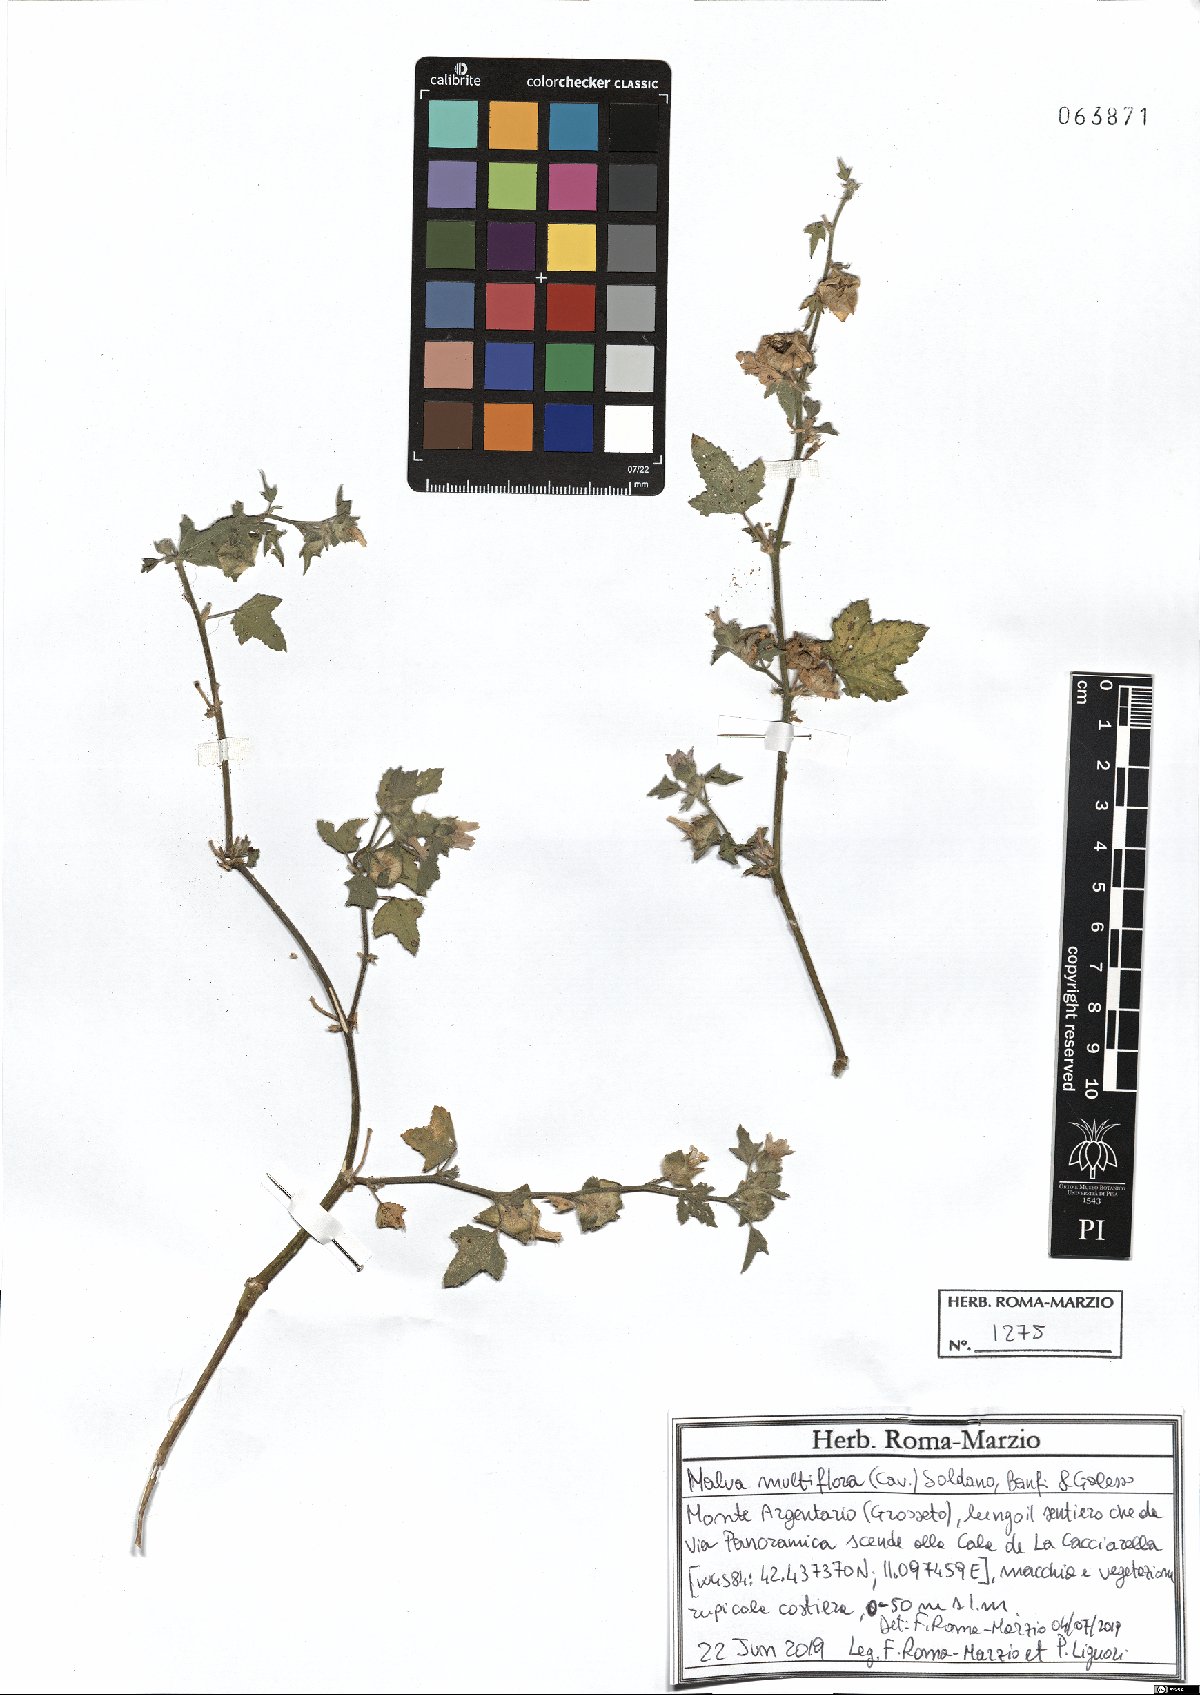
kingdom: Plantae
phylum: Tracheophyta
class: Magnoliopsida
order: Malvales
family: Malvaceae
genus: Malva
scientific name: Malva multiflora
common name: Cheeseweed
